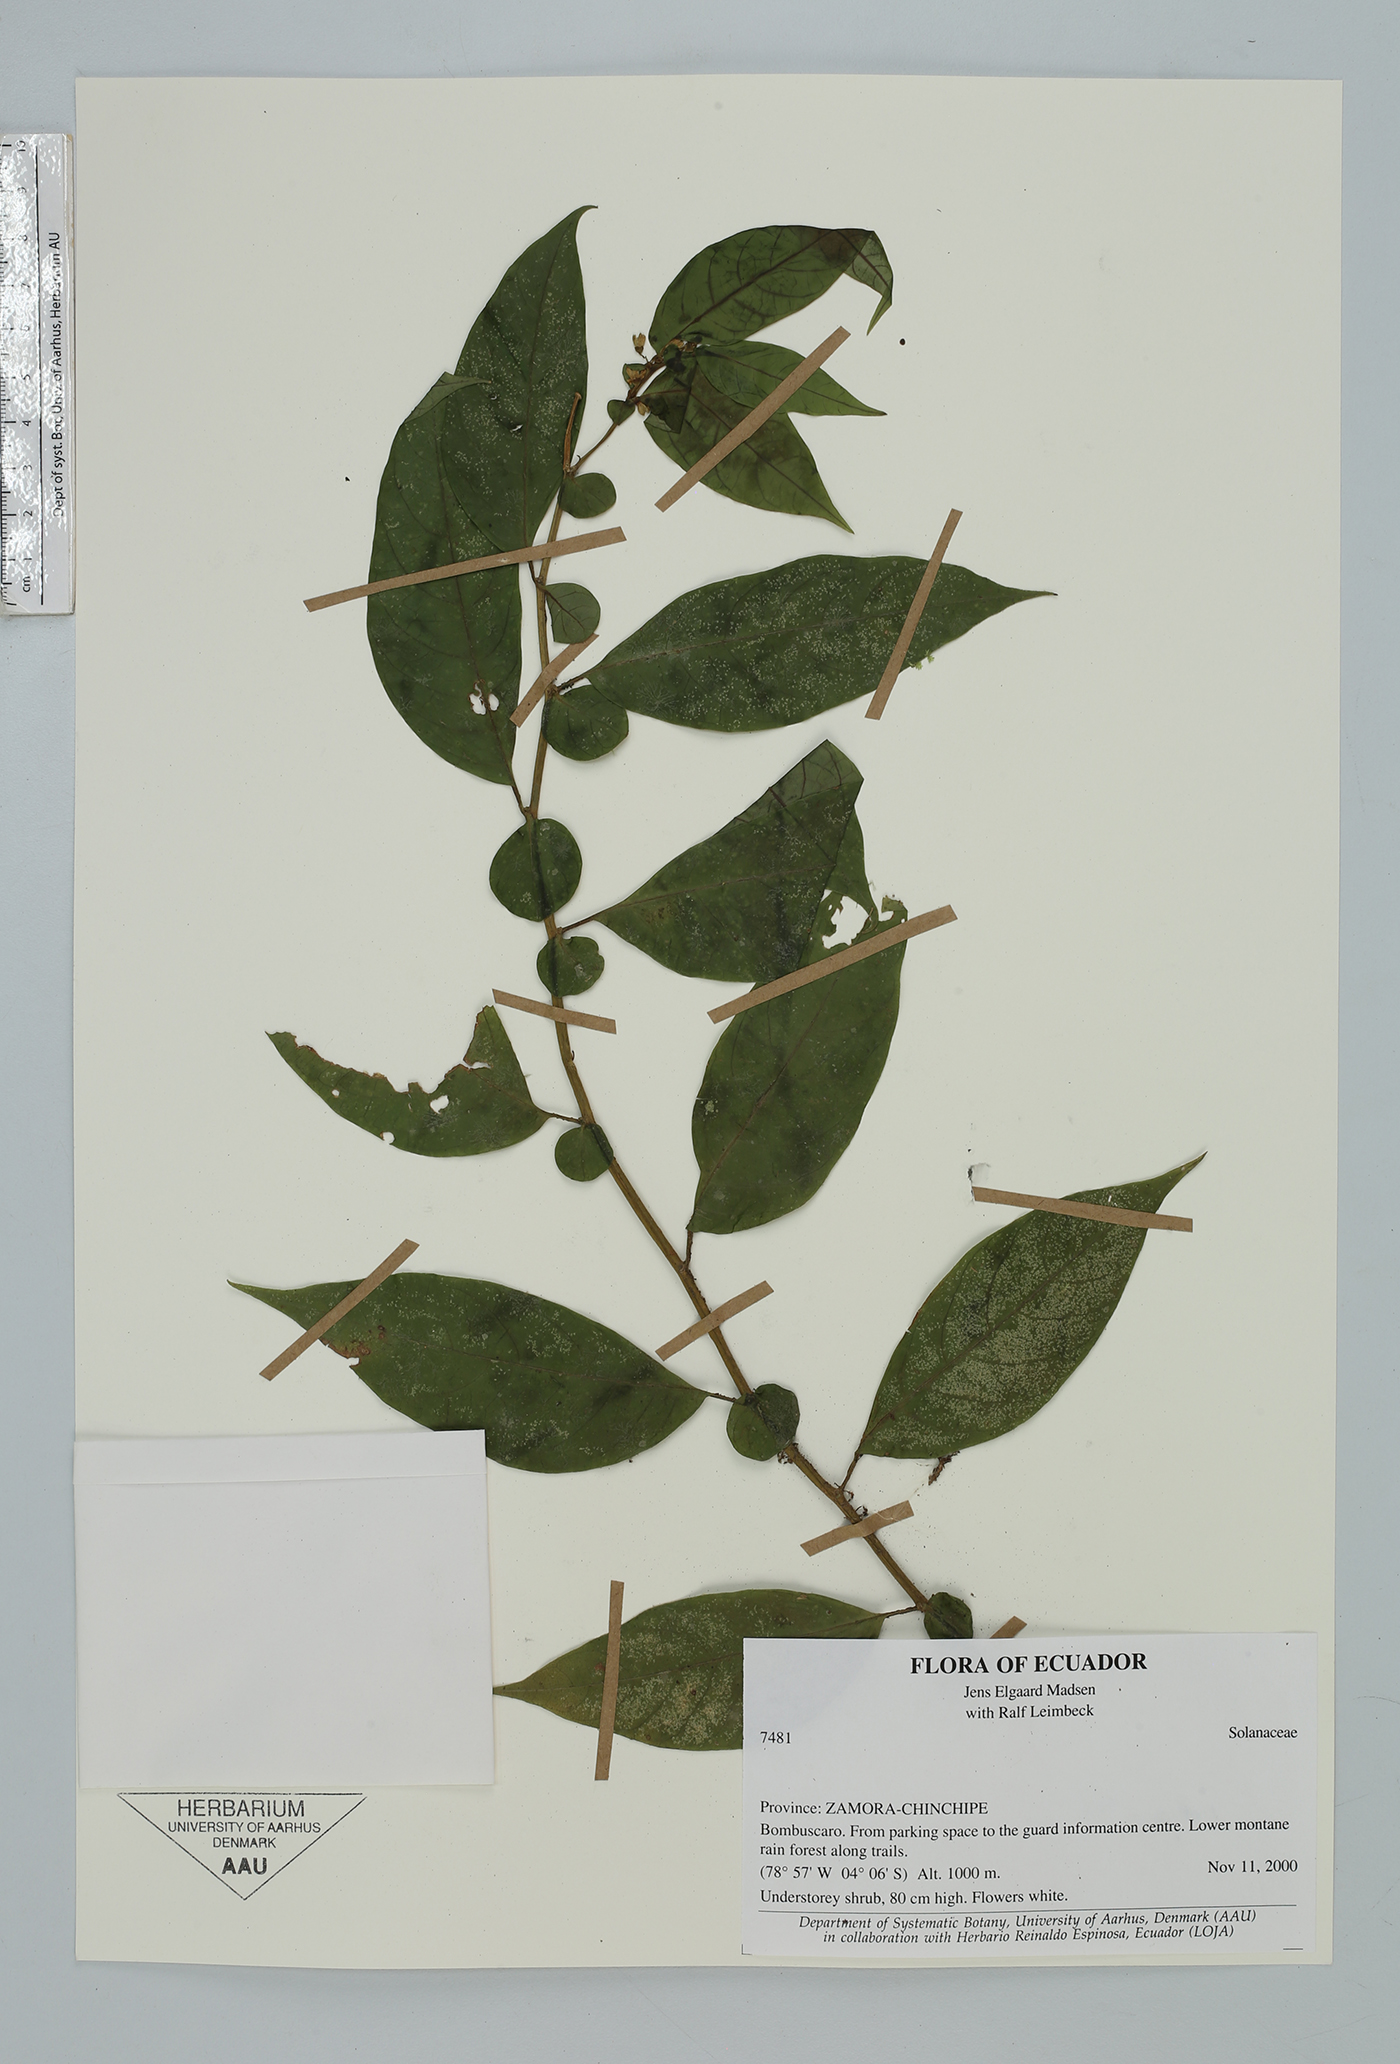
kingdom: Plantae
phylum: Tracheophyta
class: Magnoliopsida
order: Solanales
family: Solanaceae
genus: Solanum
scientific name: Solanum
